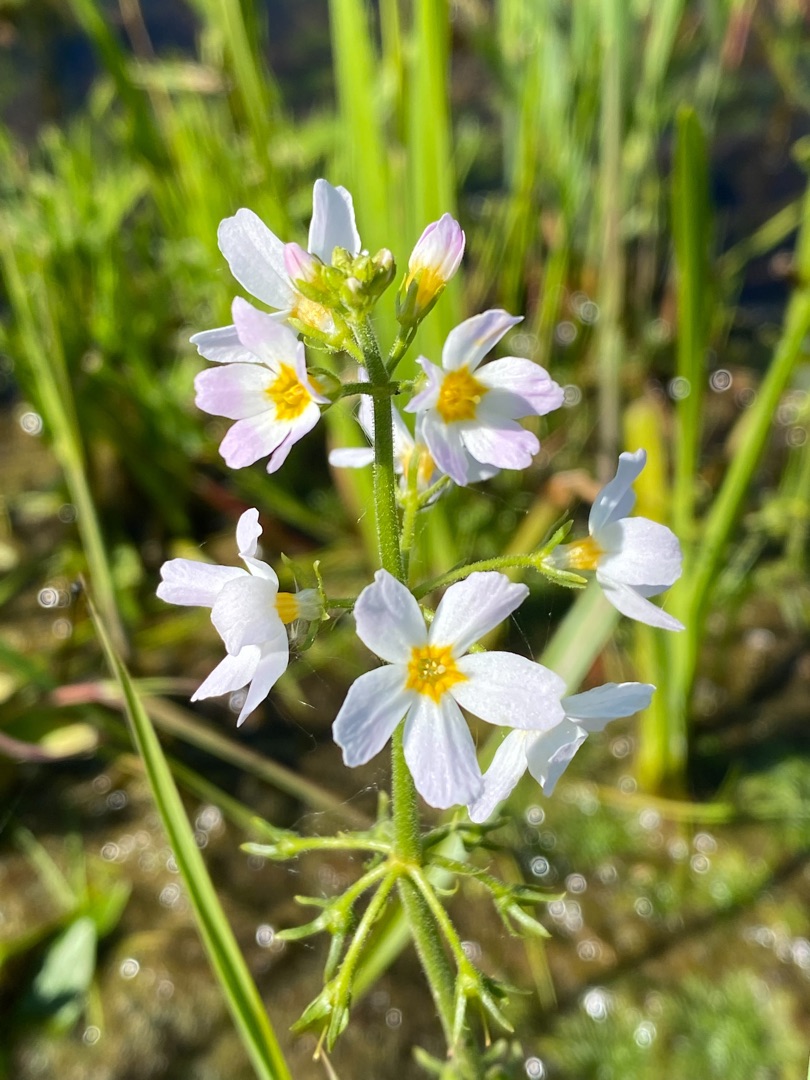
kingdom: Plantae
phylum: Tracheophyta
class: Magnoliopsida
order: Ericales
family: Primulaceae
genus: Hottonia
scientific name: Hottonia palustris
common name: Vandrøllike
